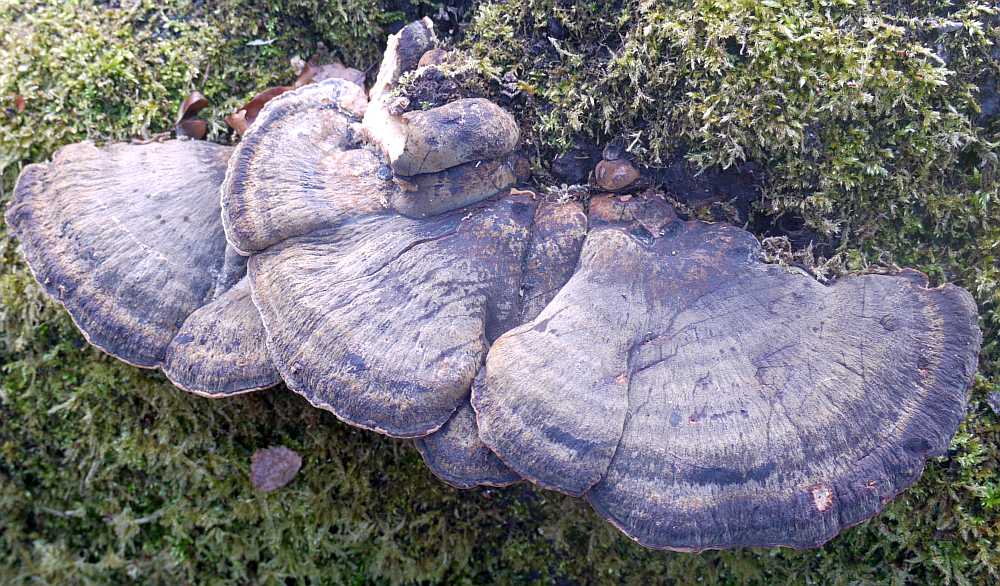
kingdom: Fungi
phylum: Basidiomycota
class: Agaricomycetes
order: Polyporales
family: Ischnodermataceae
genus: Ischnoderma
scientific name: Ischnoderma resinosum
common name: løv-tjæreporesvamp
